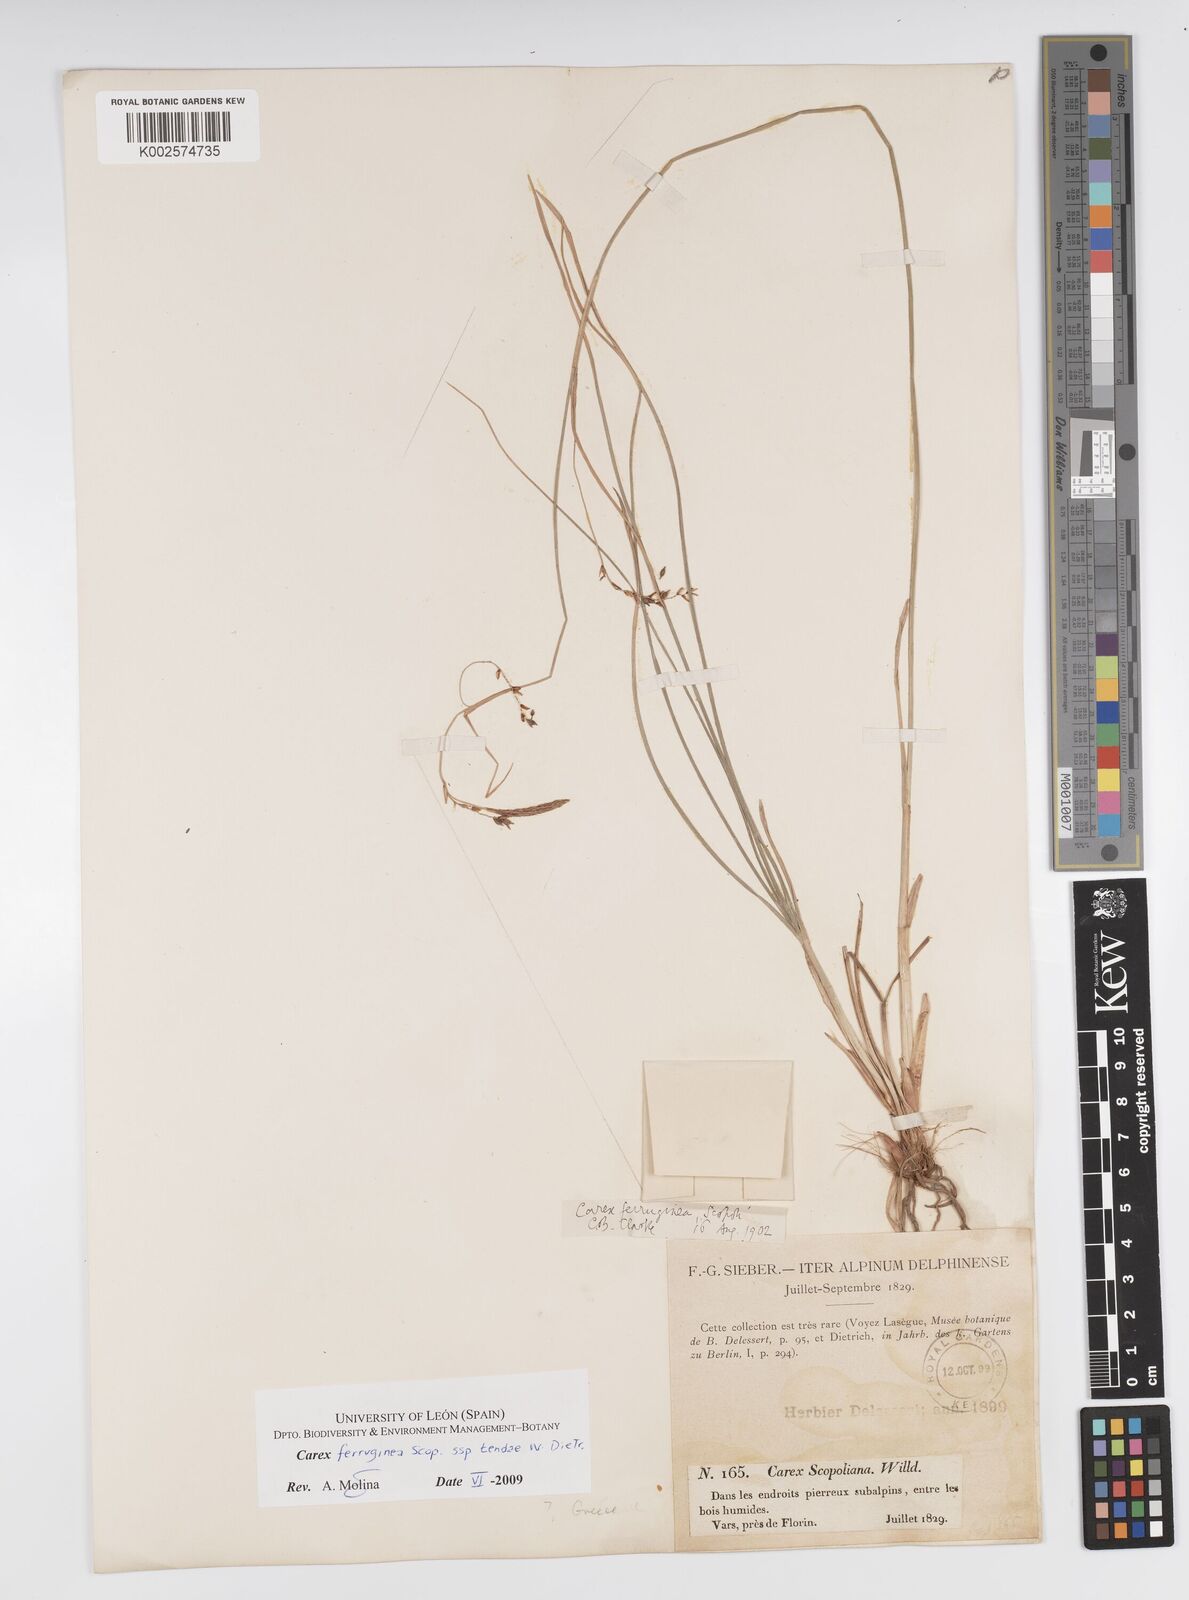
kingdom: Plantae
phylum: Tracheophyta
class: Liliopsida
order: Poales
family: Cyperaceae
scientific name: Cyperaceae
